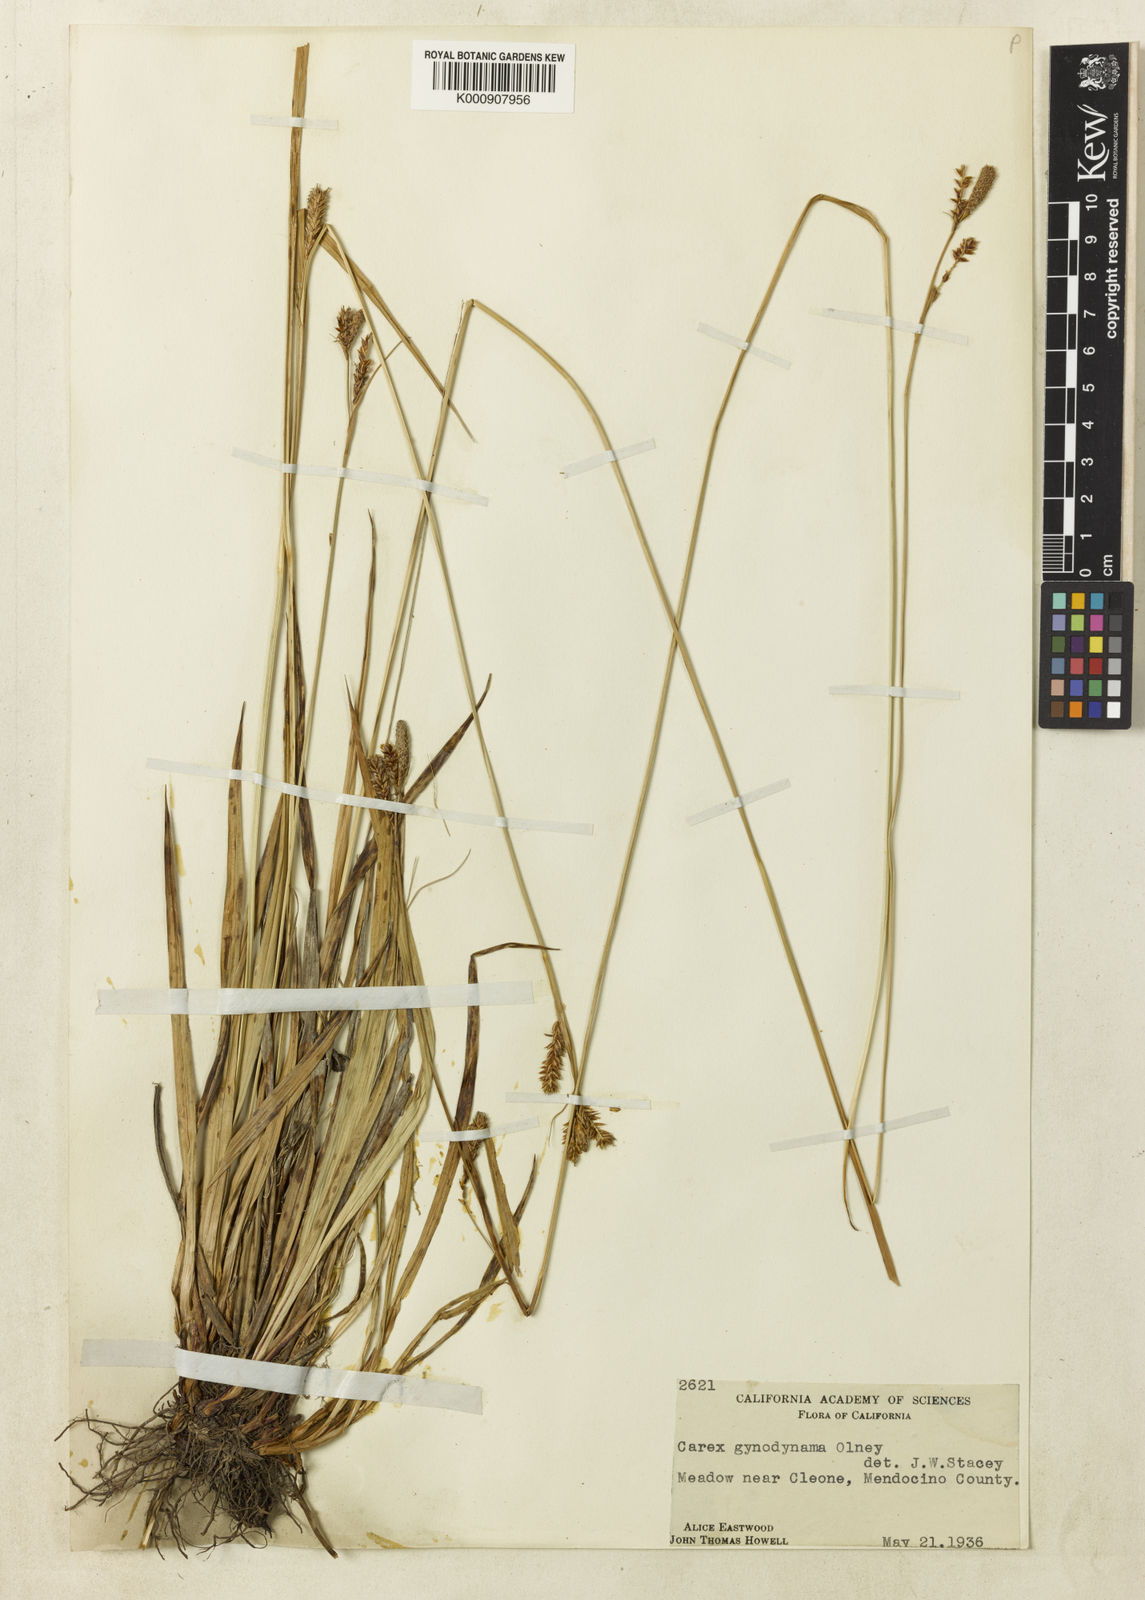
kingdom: Plantae
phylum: Tracheophyta
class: Liliopsida
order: Poales
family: Cyperaceae
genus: Carex
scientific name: Carex gynodynama
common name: Olney's hairy sedge
